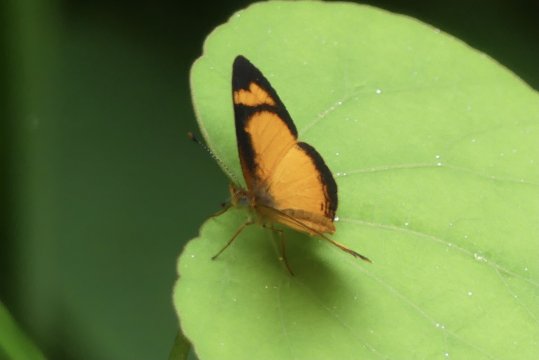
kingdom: Animalia
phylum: Arthropoda
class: Insecta
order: Lepidoptera
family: Nymphalidae
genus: Tegosa
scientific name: Tegosa anieta
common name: Black-bordered Crescent
